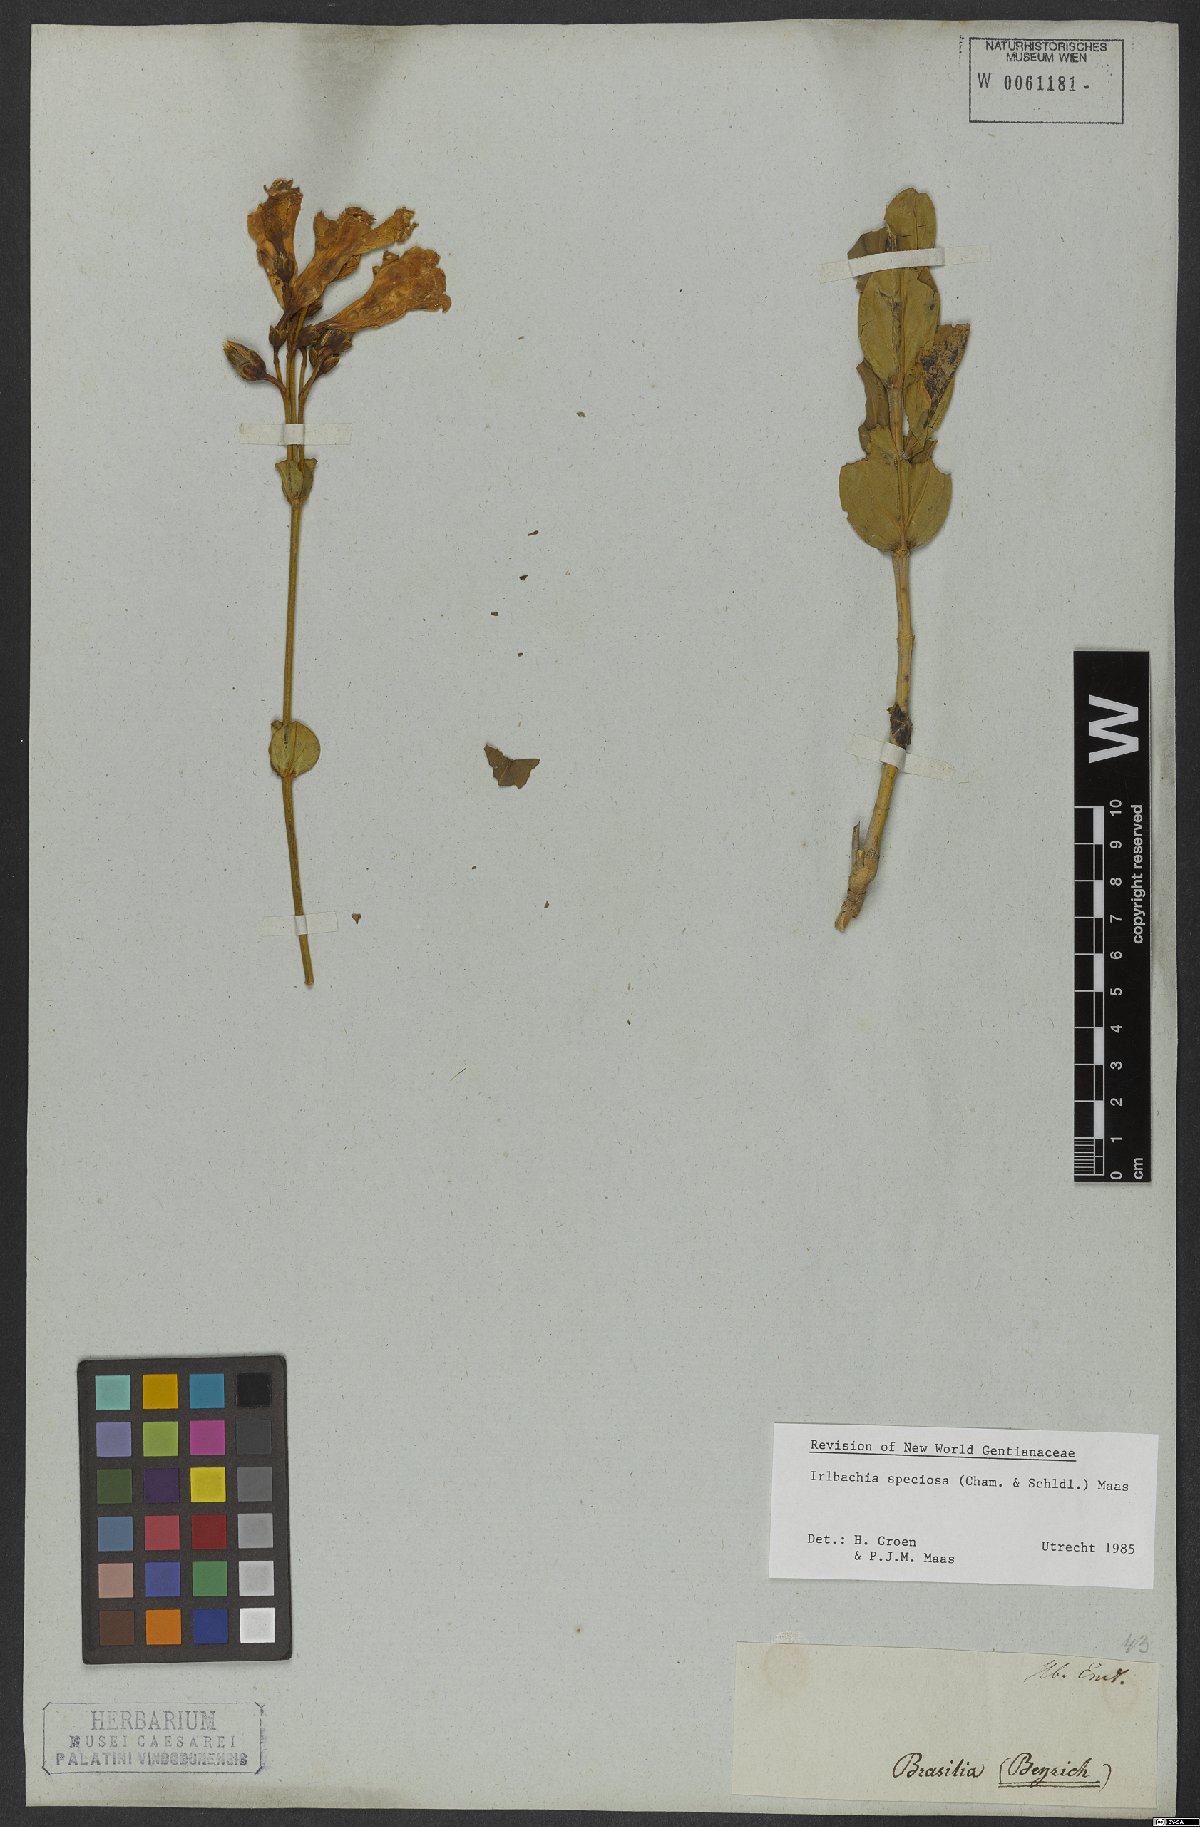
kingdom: Plantae
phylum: Tracheophyta
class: Magnoliopsida
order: Gentianales
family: Gentianaceae
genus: Calolisianthus
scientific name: Calolisianthus speciosus
